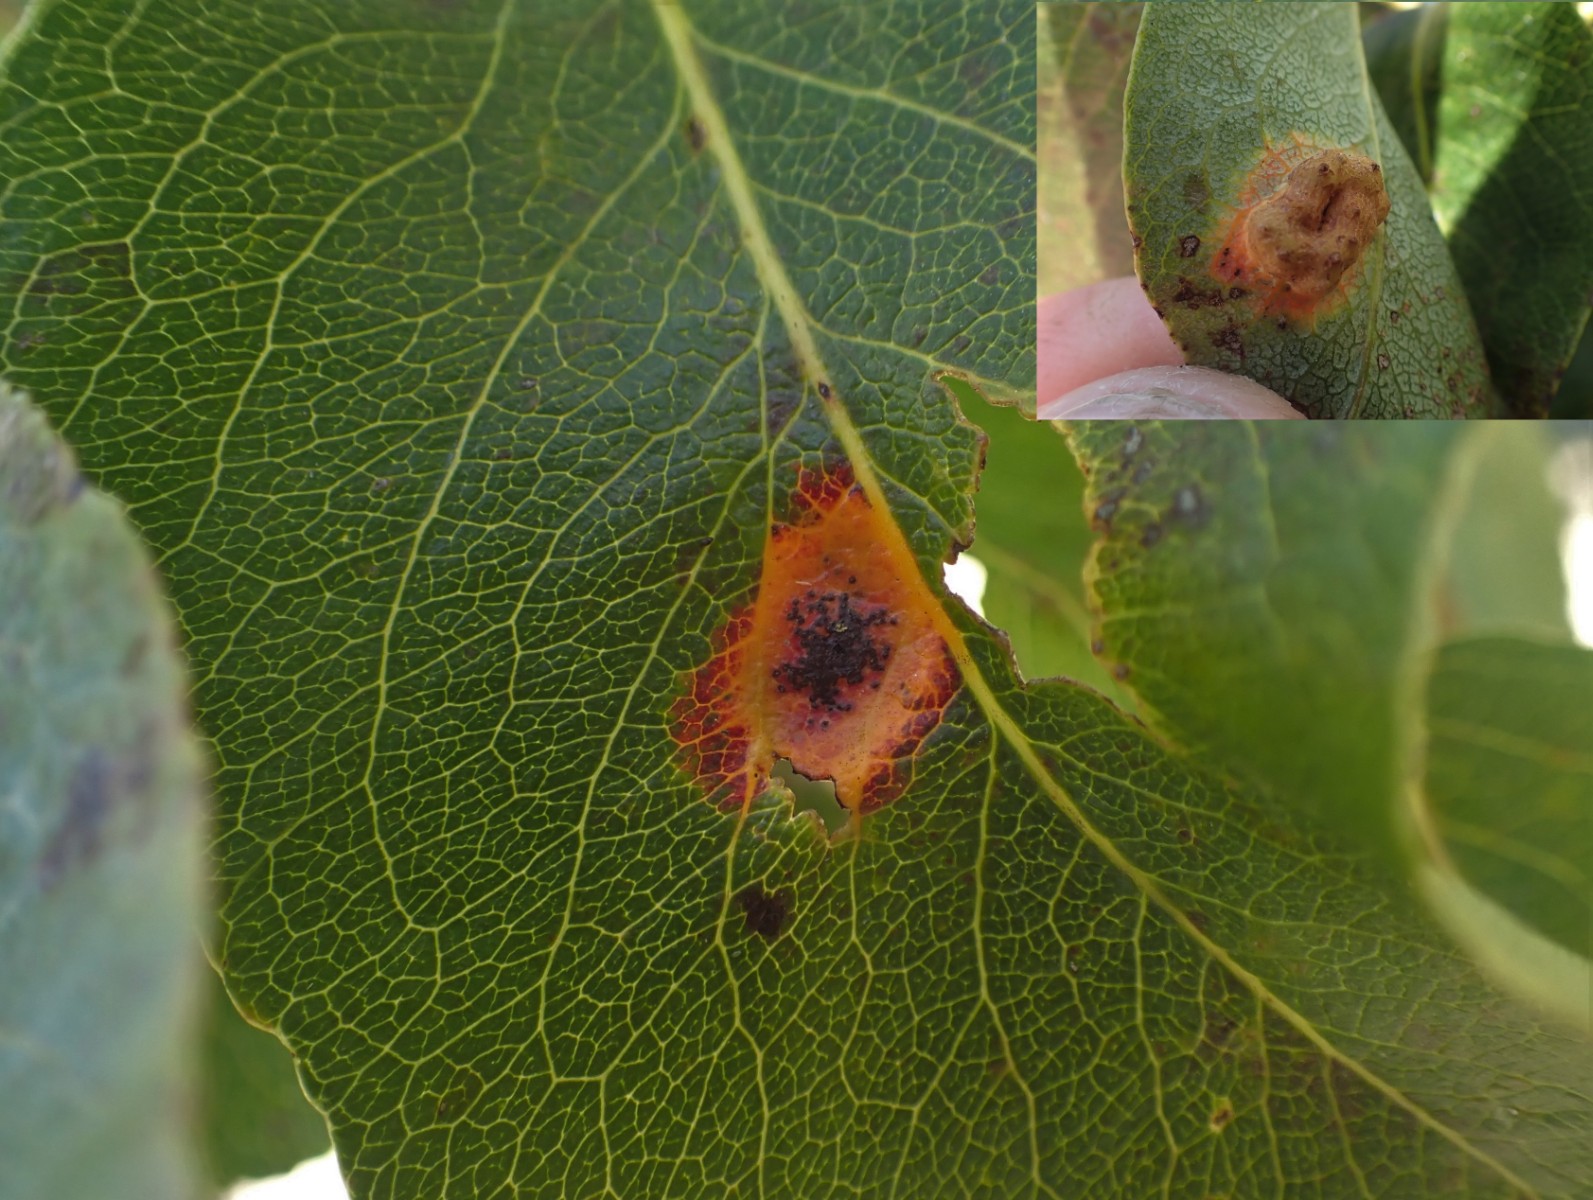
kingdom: Fungi
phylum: Basidiomycota
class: Pucciniomycetes
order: Pucciniales
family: Gymnosporangiaceae
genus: Gymnosporangium
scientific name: Gymnosporangium sabinae
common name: pæregitter-bævrerust
